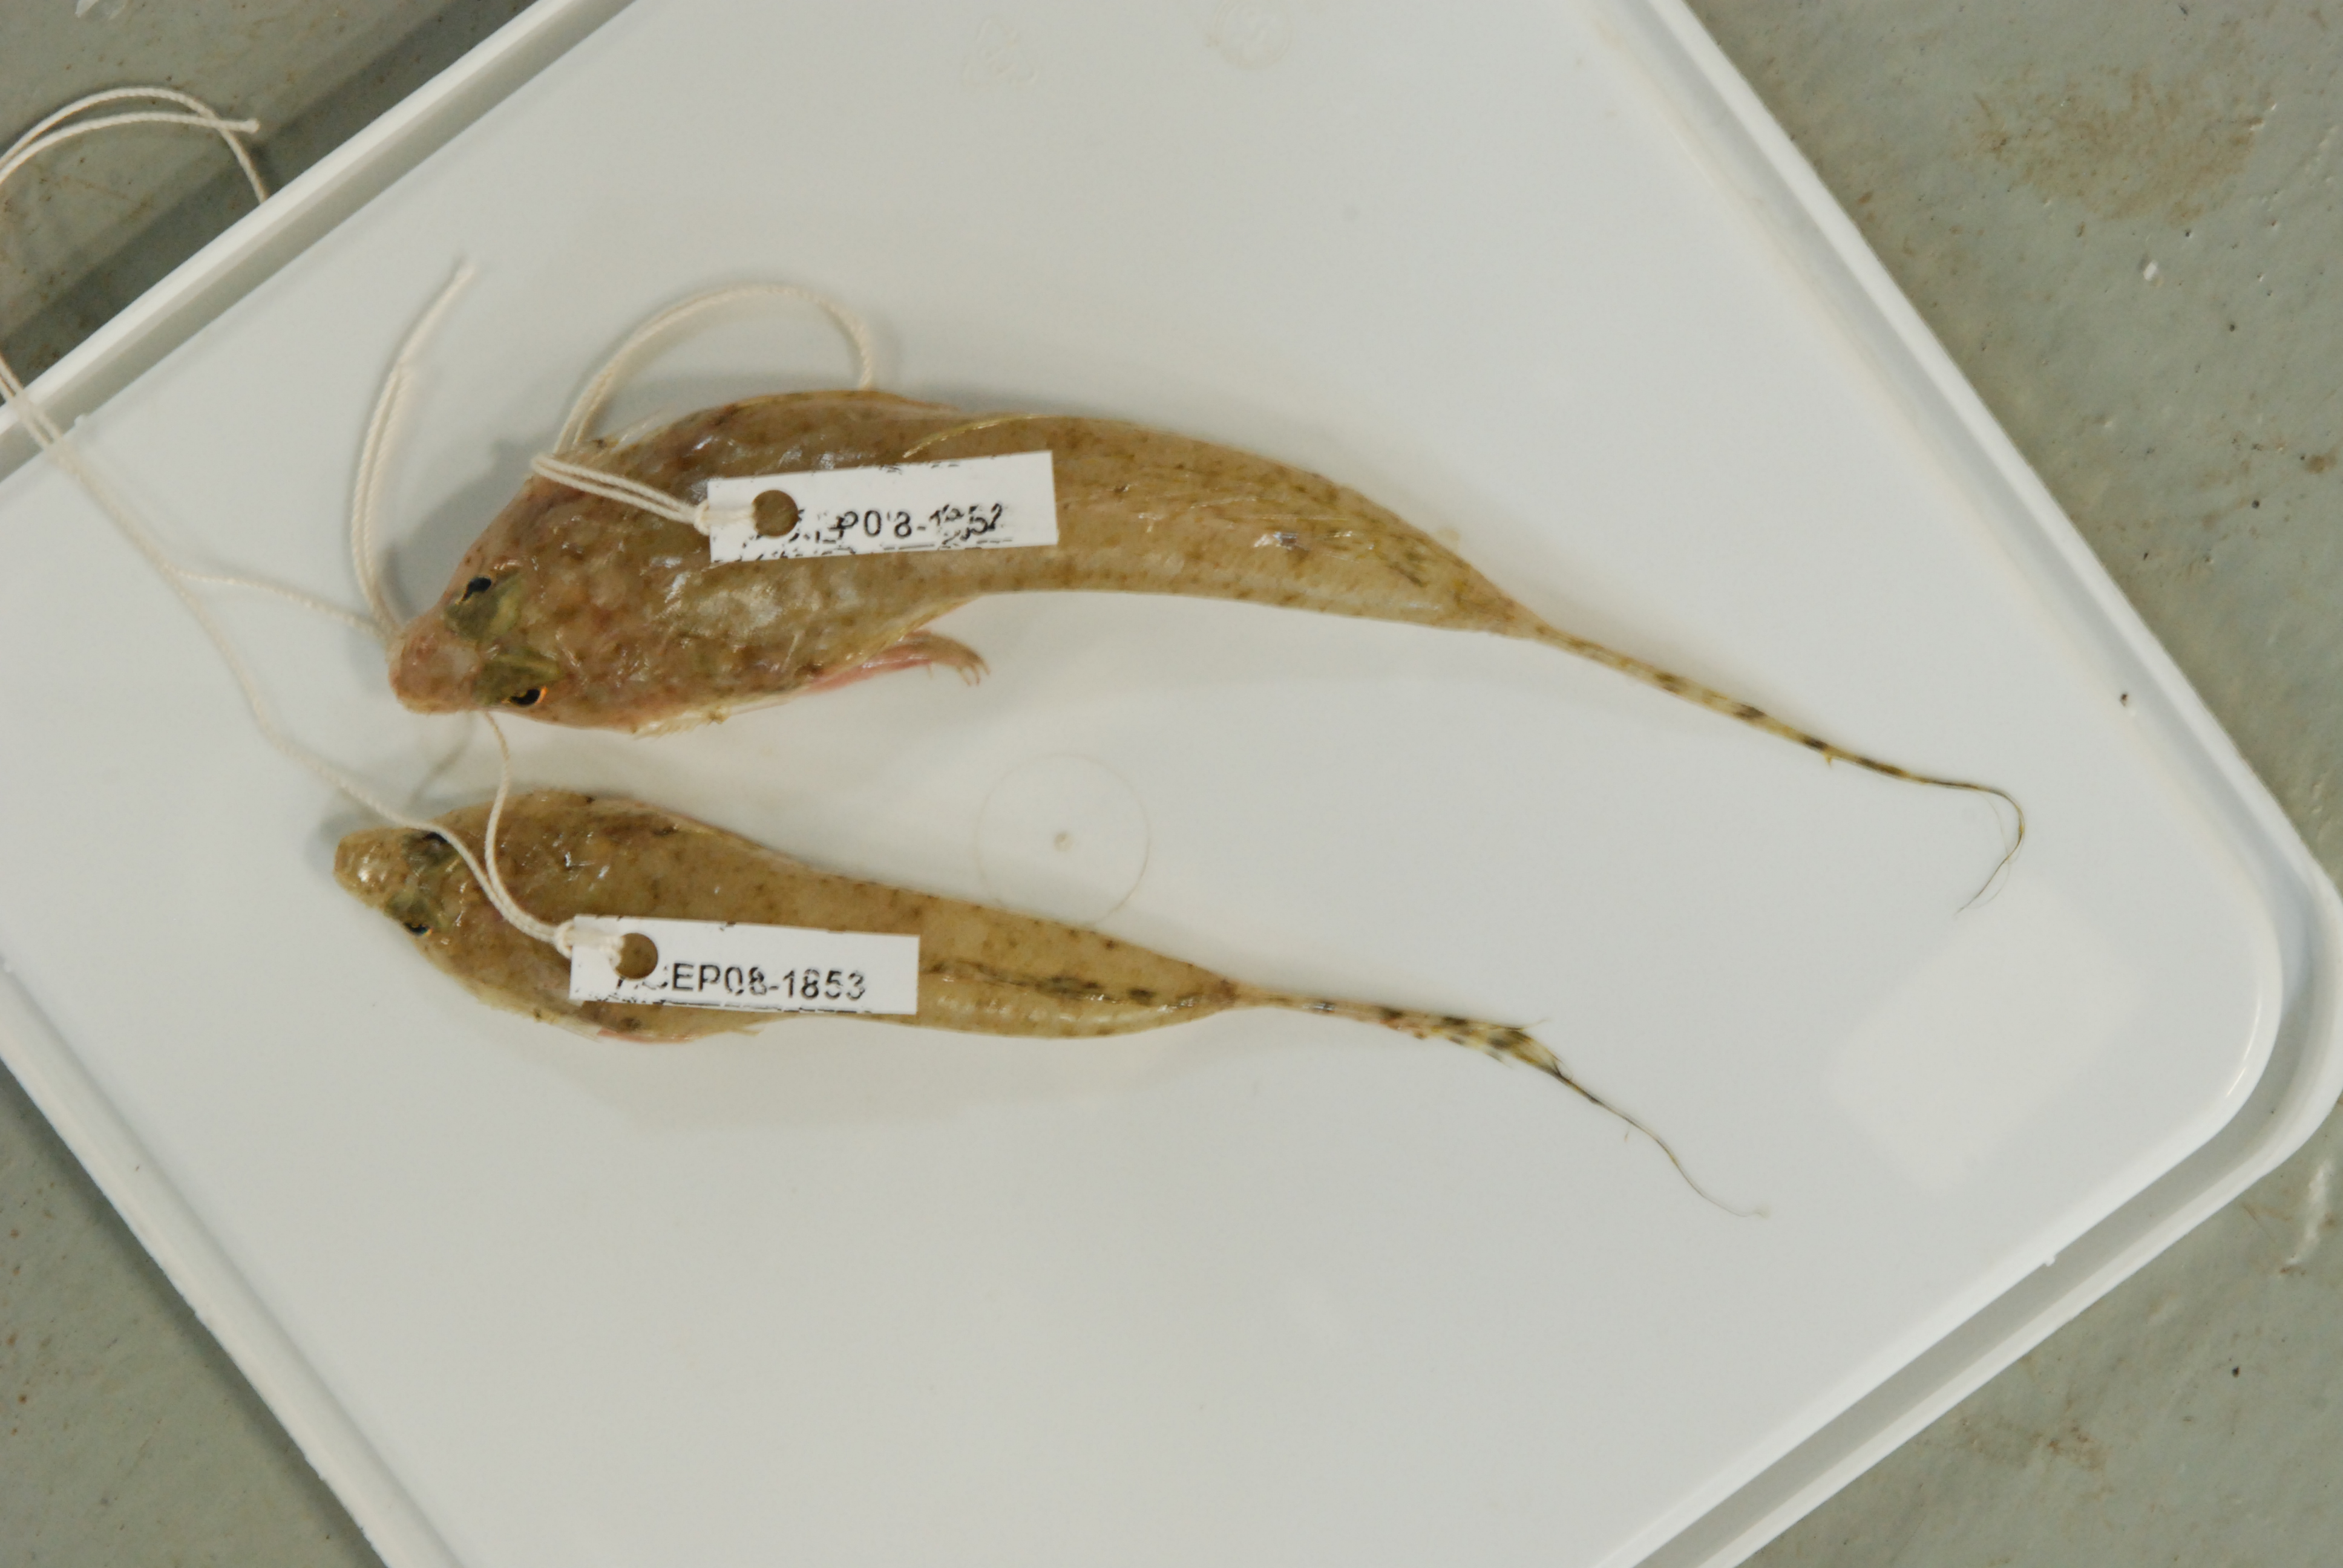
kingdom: Animalia
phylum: Chordata
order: Perciformes
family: Callionymidae
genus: Spinicapitichthys
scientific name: Spinicapitichthys spiniceps
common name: Seychelles spiny dragonet
